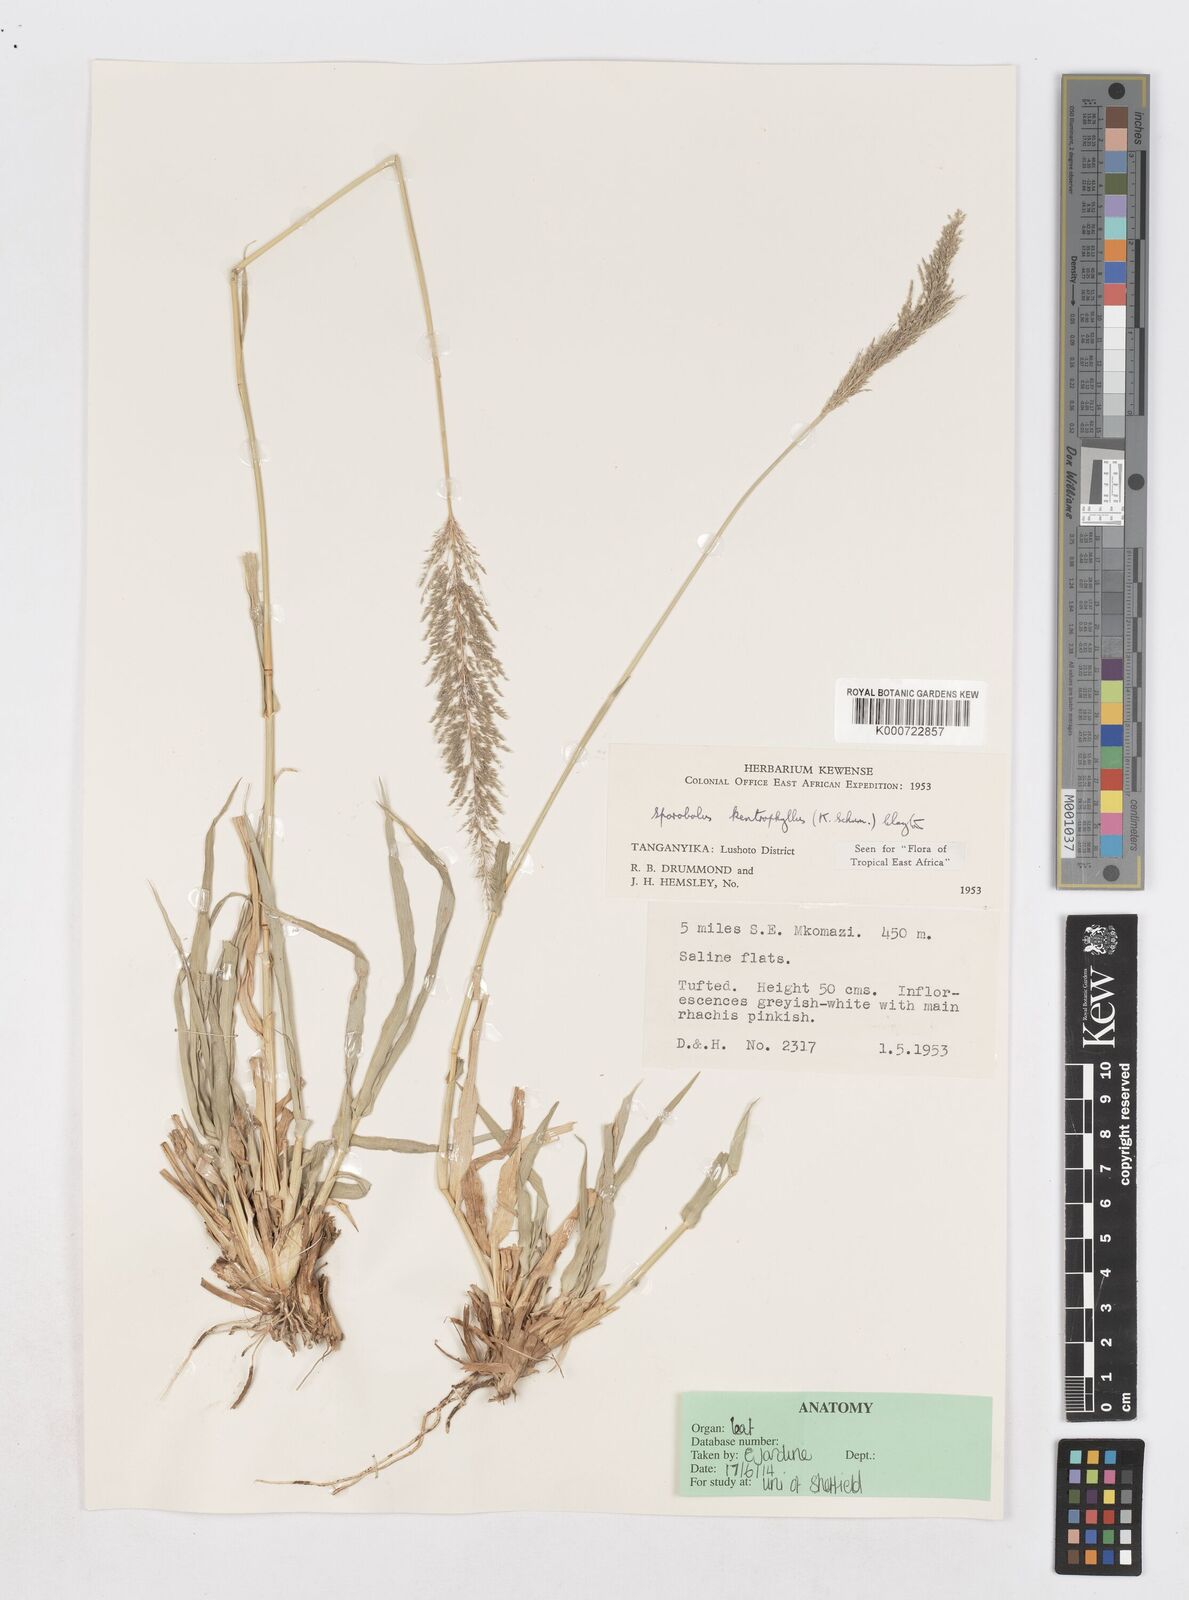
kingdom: Plantae
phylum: Tracheophyta
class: Liliopsida
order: Poales
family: Poaceae
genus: Sporobolus
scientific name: Sporobolus ioclados
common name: Pan dropseed
